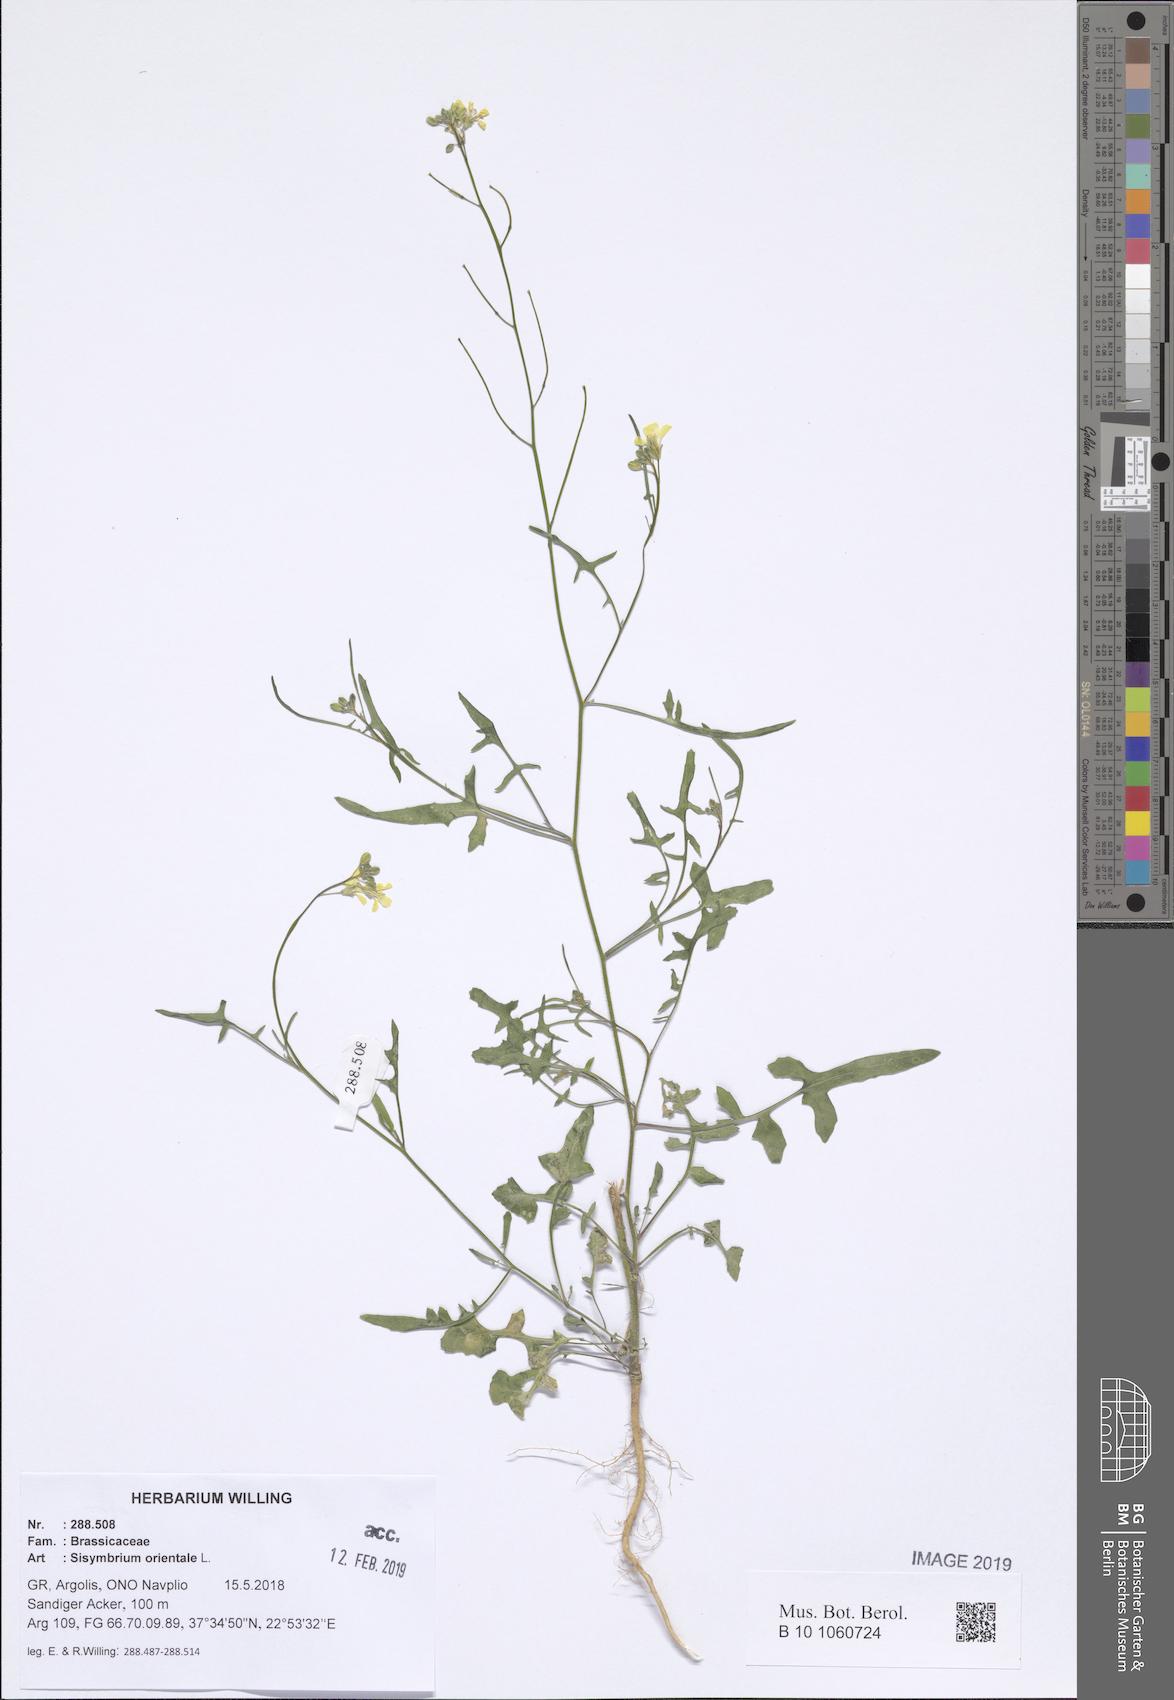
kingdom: Plantae
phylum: Tracheophyta
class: Magnoliopsida
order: Brassicales
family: Brassicaceae
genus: Sisymbrium
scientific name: Sisymbrium orientale
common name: Eastern rocket
